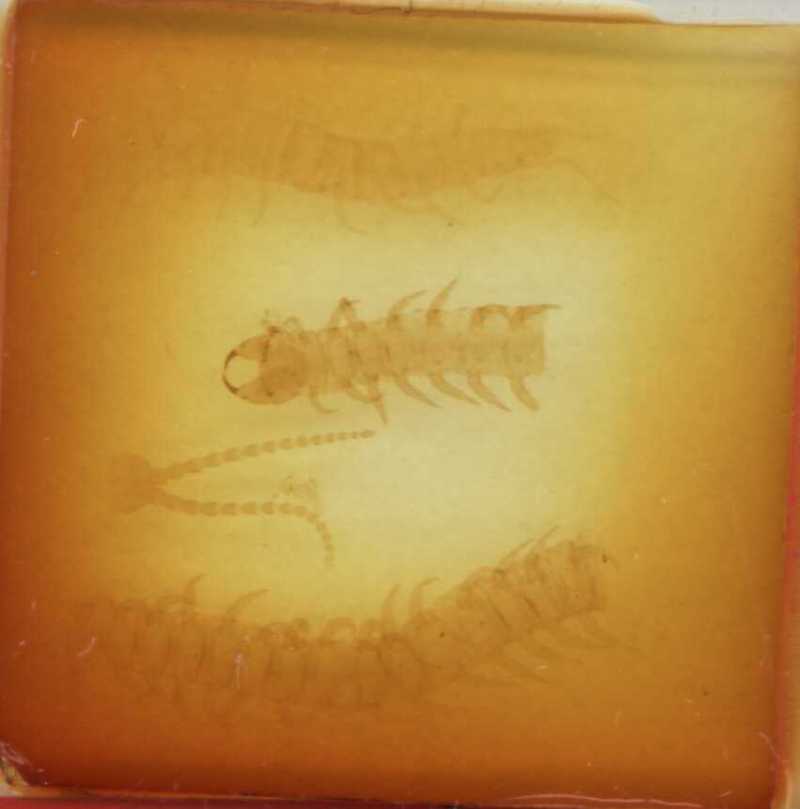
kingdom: Animalia
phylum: Arthropoda
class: Chilopoda
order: Geophilomorpha
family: Geophilidae
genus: Geophilus
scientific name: Geophilus insculptus
